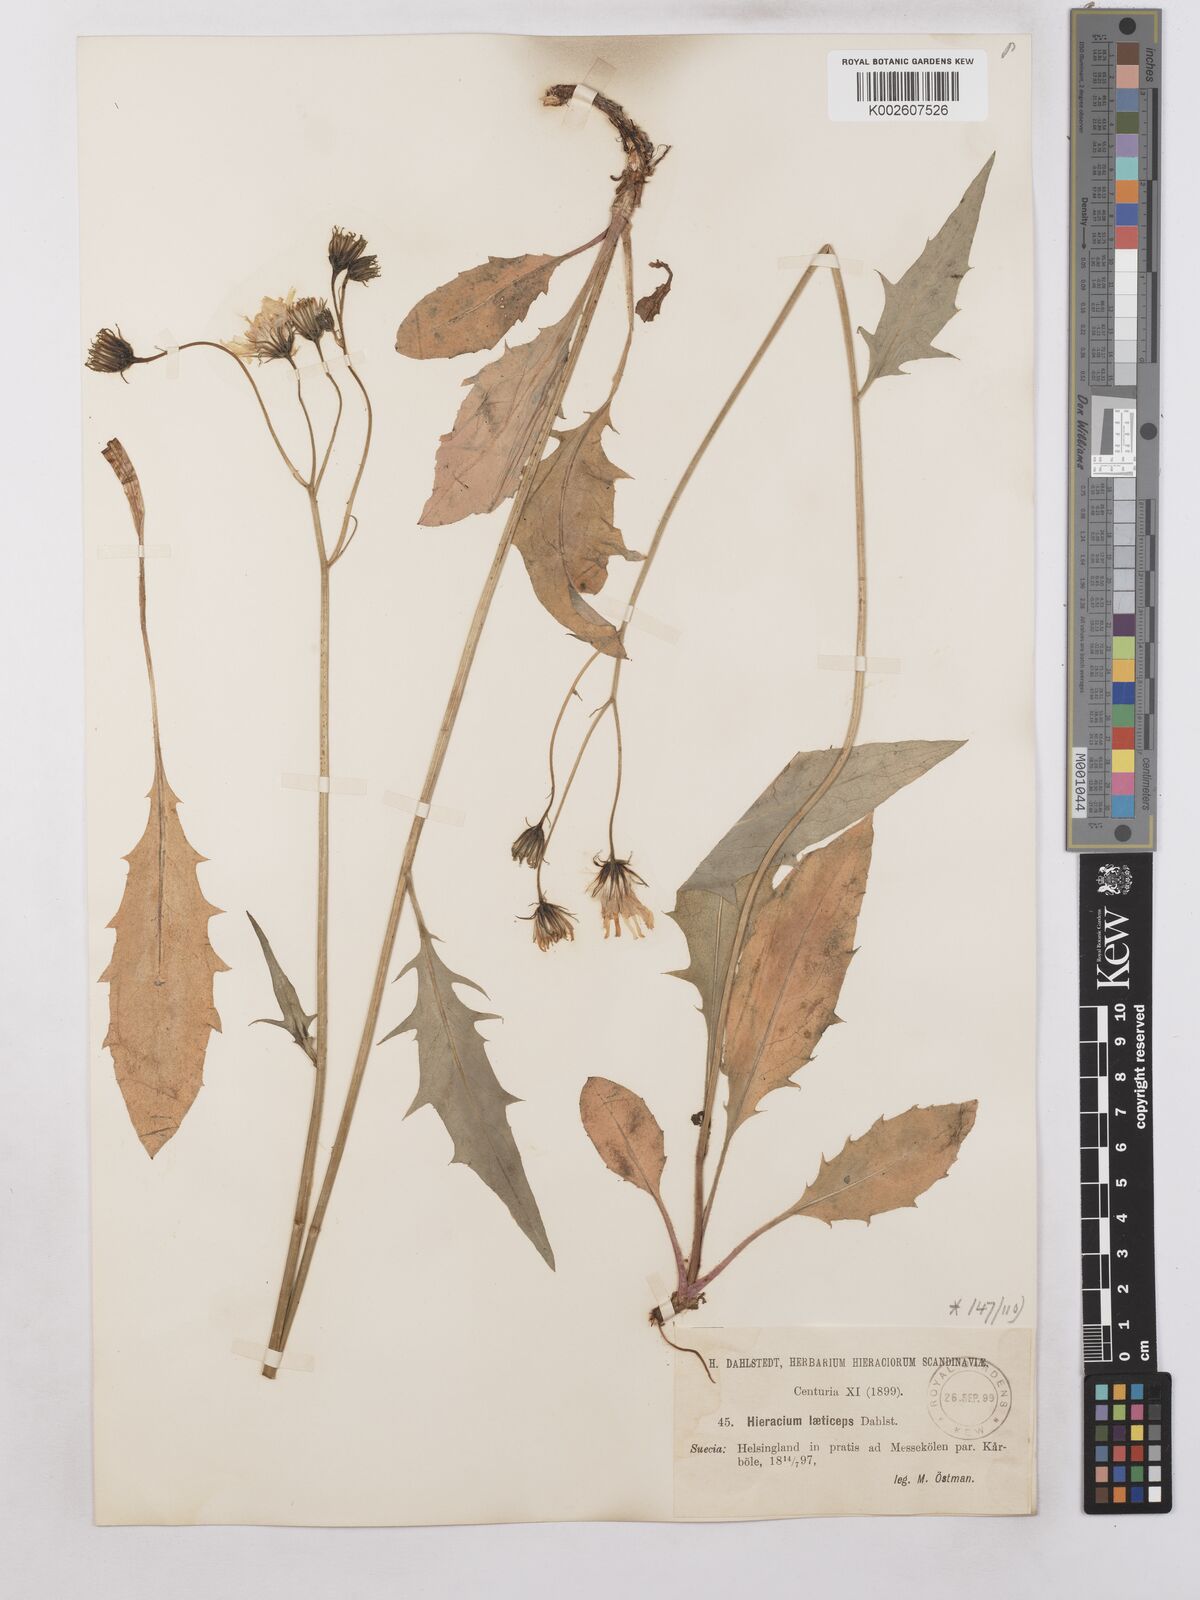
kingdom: Plantae
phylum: Tracheophyta
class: Magnoliopsida
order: Asterales
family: Asteraceae
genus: Hieracium
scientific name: Hieracium caesium
